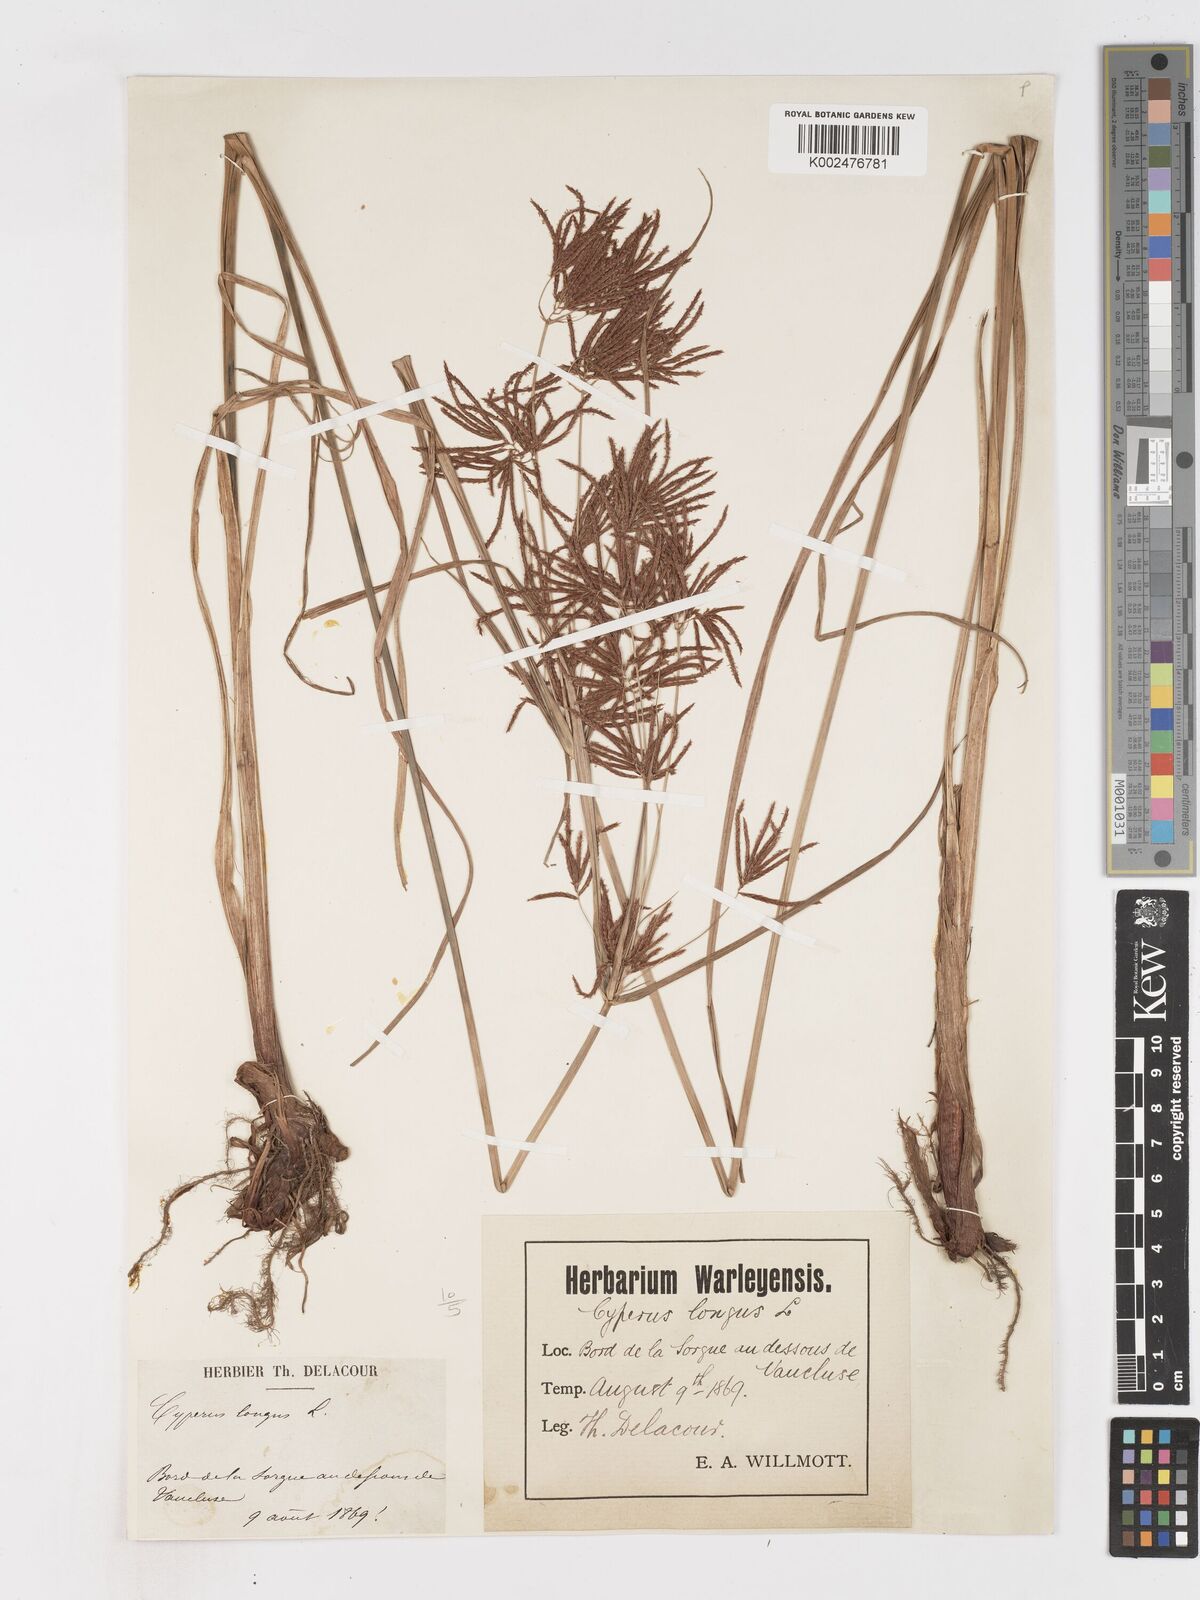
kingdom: Plantae
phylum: Tracheophyta
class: Liliopsida
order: Poales
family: Cyperaceae
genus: Cyperus
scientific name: Cyperus longus
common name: Galingale
